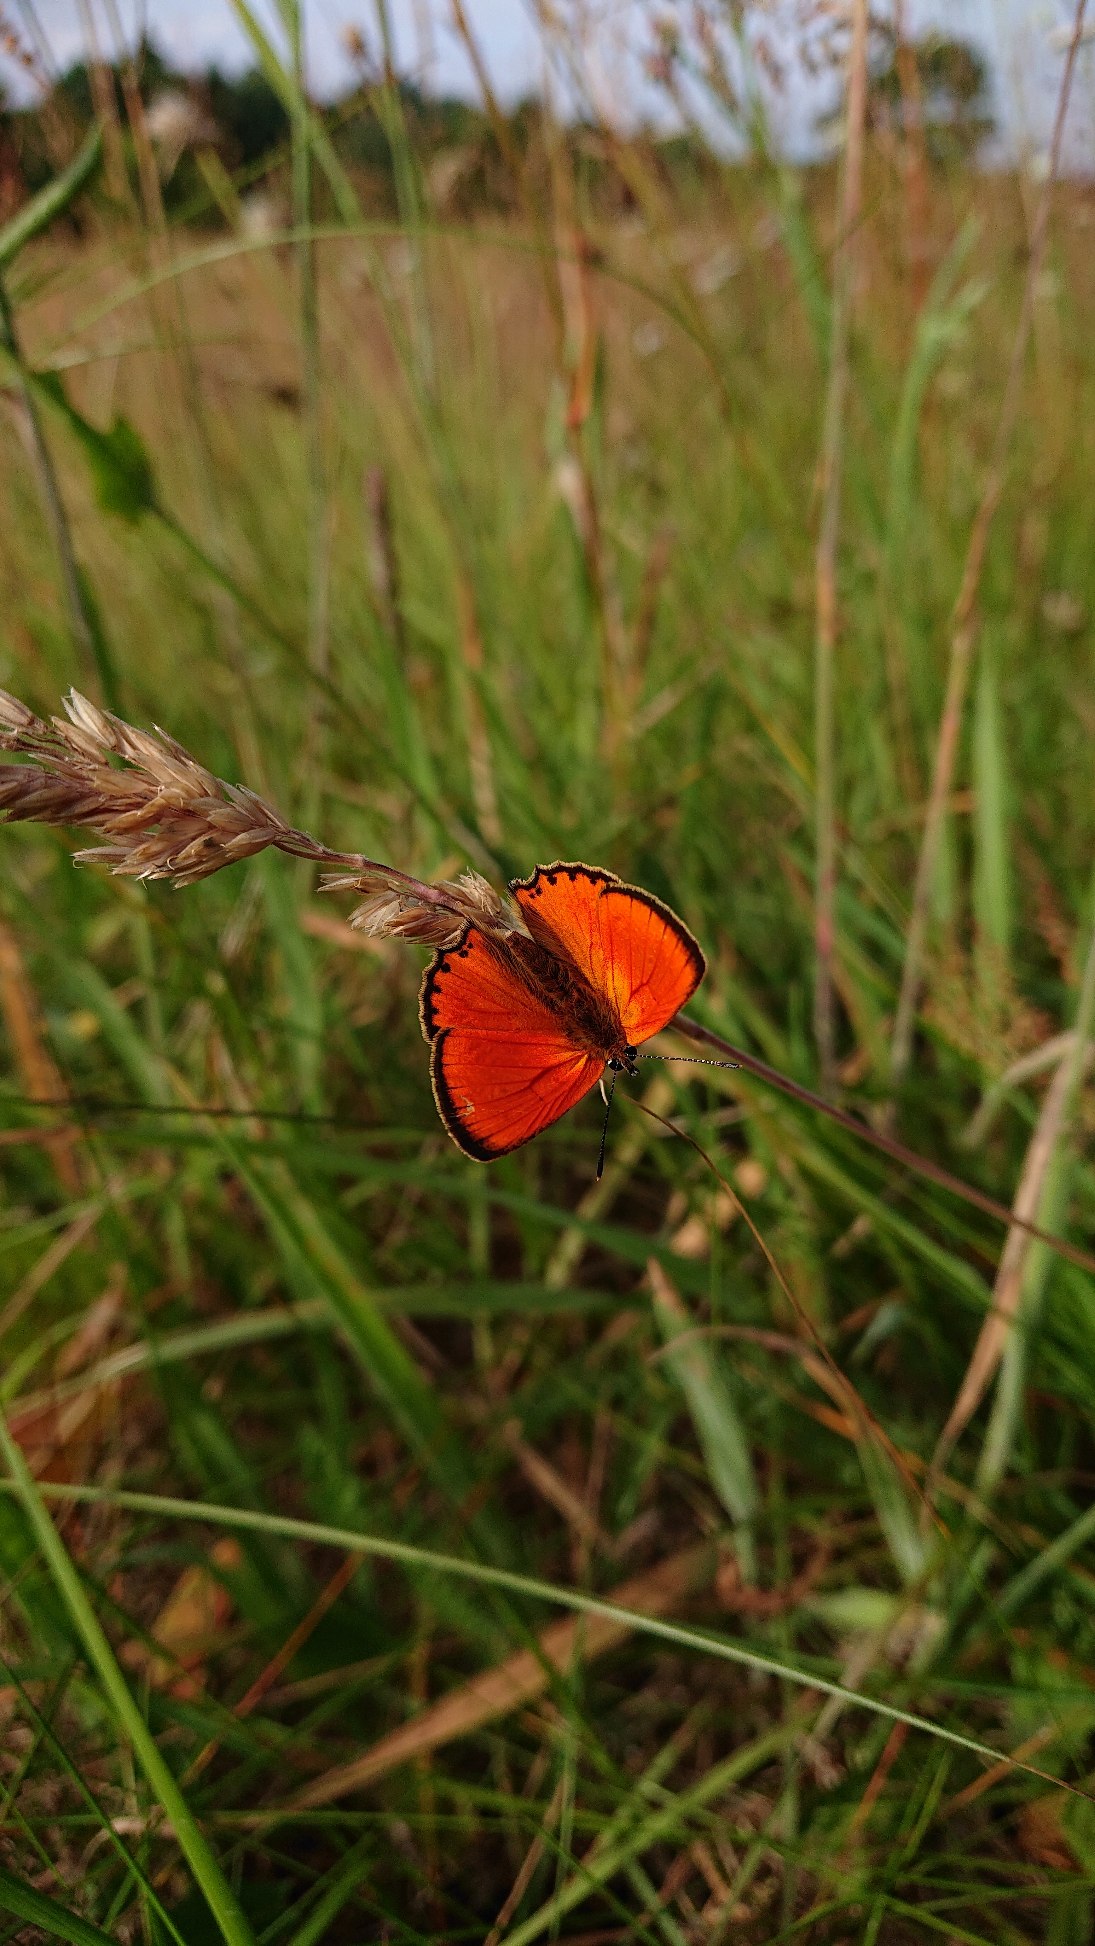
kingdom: Animalia
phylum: Arthropoda
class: Insecta
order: Lepidoptera
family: Lycaenidae
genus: Lycaena
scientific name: Lycaena virgaureae
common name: Dukatsommerfugl
